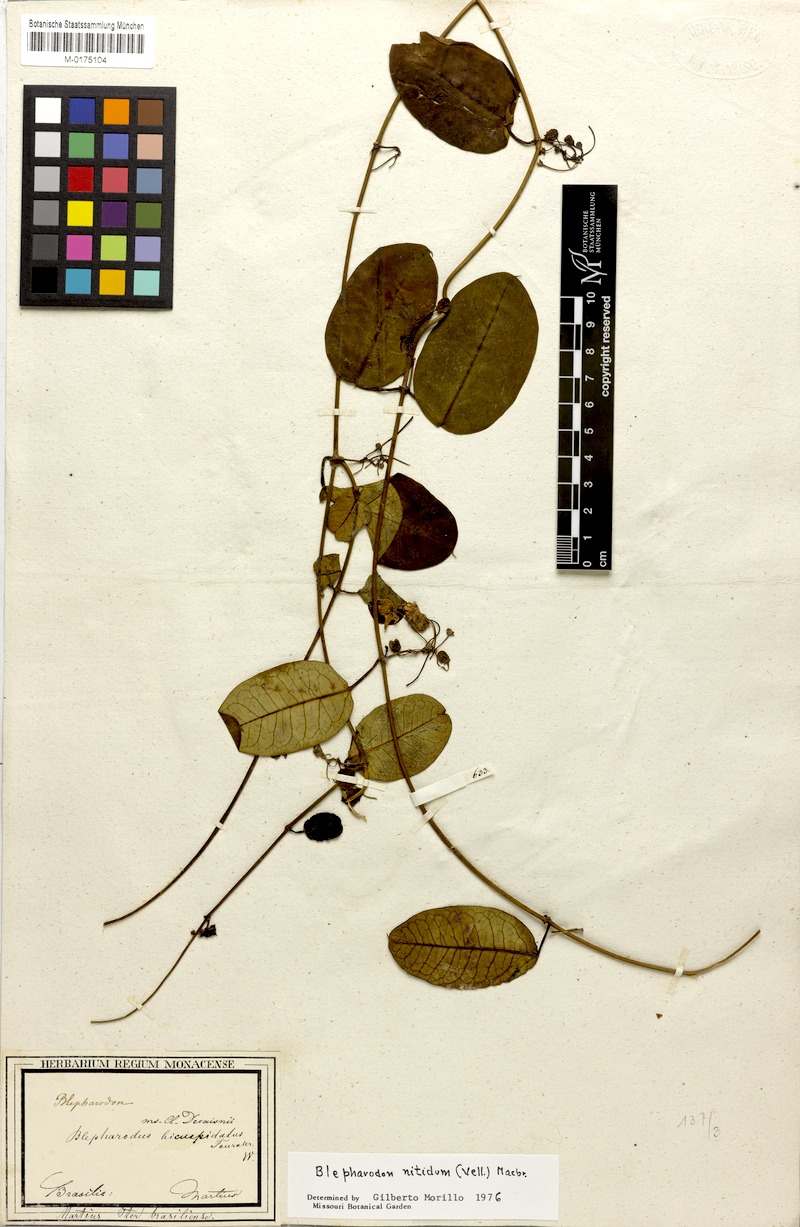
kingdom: Plantae
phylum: Tracheophyta
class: Magnoliopsida
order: Gentianales
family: Apocynaceae
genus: Blepharodon
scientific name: Blepharodon pictum
